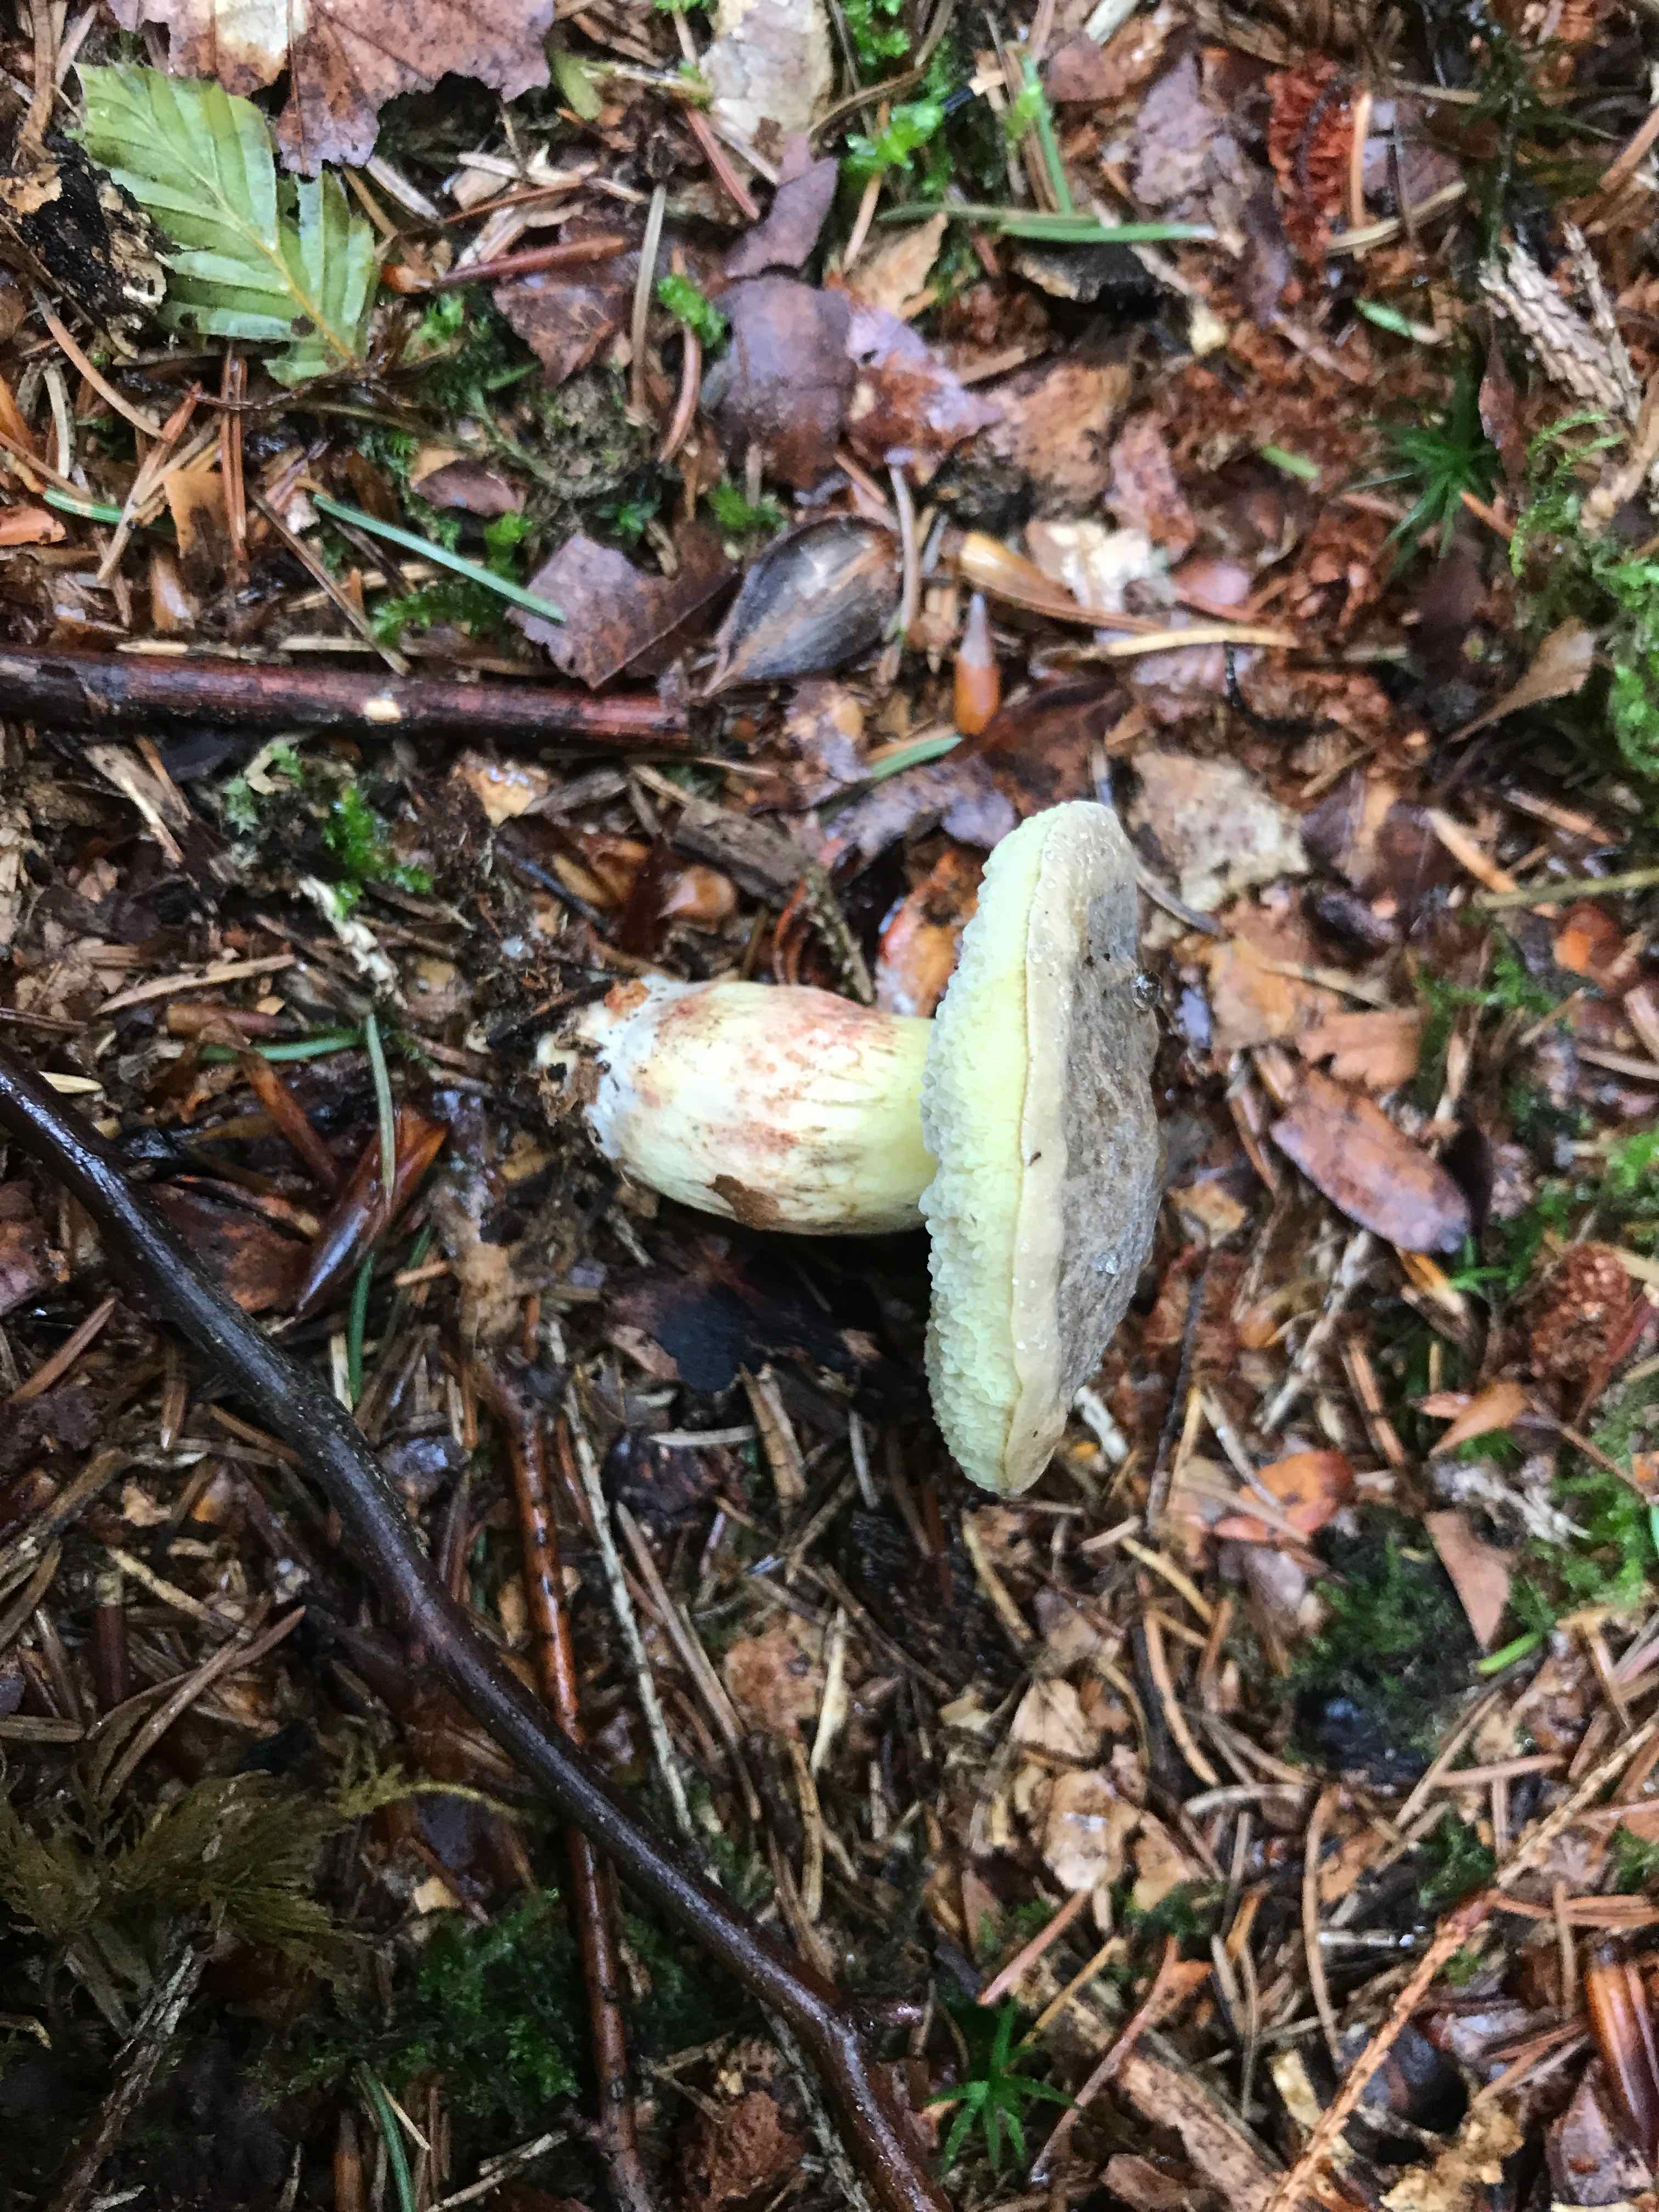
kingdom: Fungi
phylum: Basidiomycota
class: Agaricomycetes
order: Boletales
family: Boletaceae
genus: Xerocomellus
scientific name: Xerocomellus pruinatus
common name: dugget rørhat
